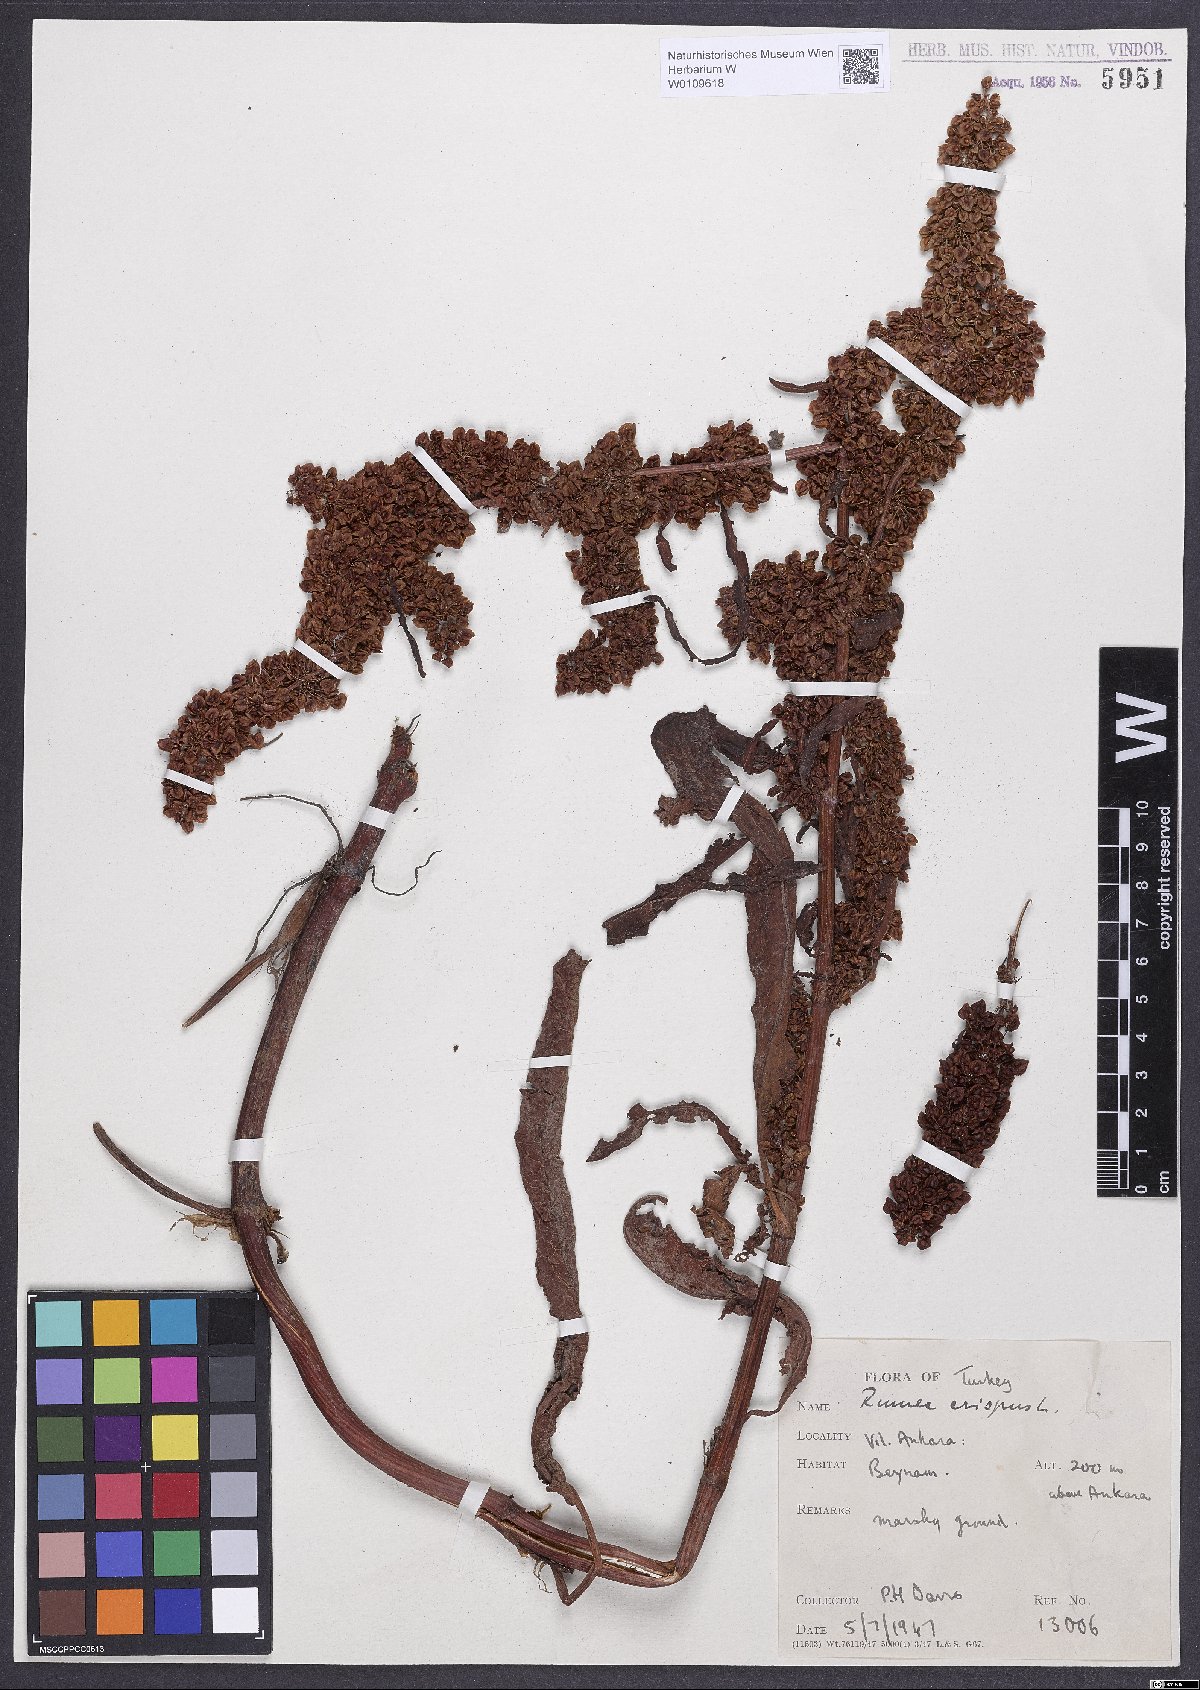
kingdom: Plantae
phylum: Tracheophyta
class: Magnoliopsida
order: Caryophyllales
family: Polygonaceae
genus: Rumex
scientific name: Rumex crispus
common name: Curled dock
